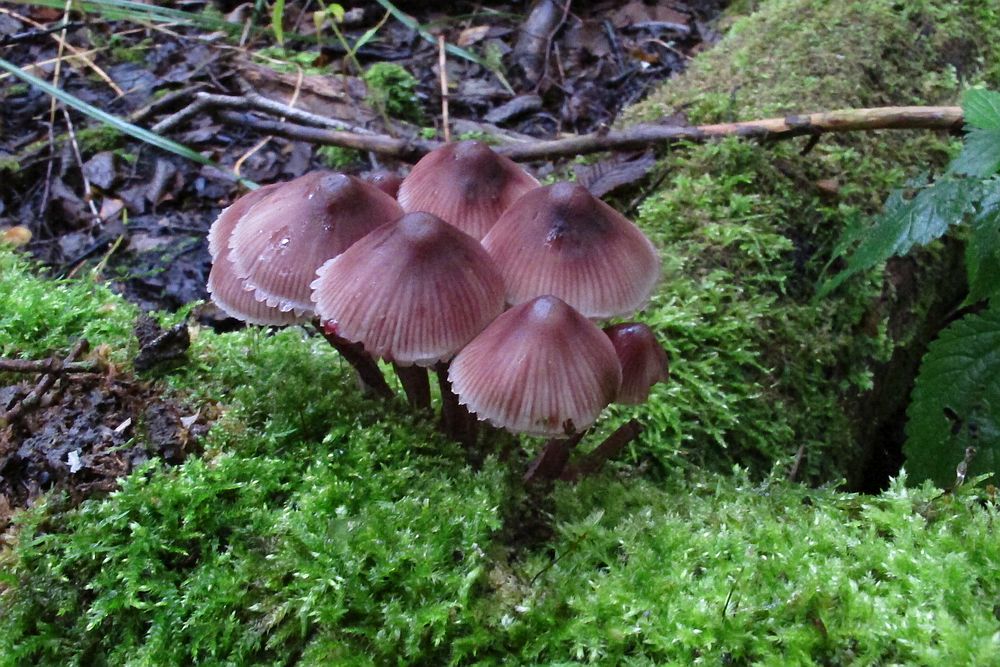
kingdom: Fungi
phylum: Basidiomycota
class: Agaricomycetes
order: Agaricales
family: Mycenaceae
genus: Mycena
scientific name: Mycena haematopus
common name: blødende huesvamp
